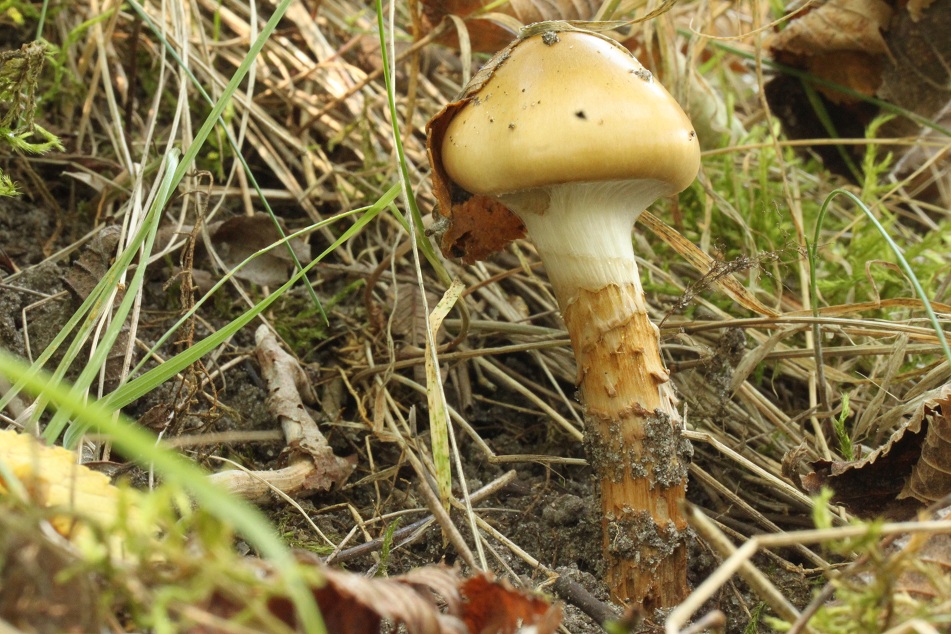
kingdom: Fungi
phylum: Basidiomycota
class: Agaricomycetes
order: Agaricales
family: Cortinariaceae
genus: Cortinarius
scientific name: Cortinarius trivialis
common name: brunslimet slørhat
